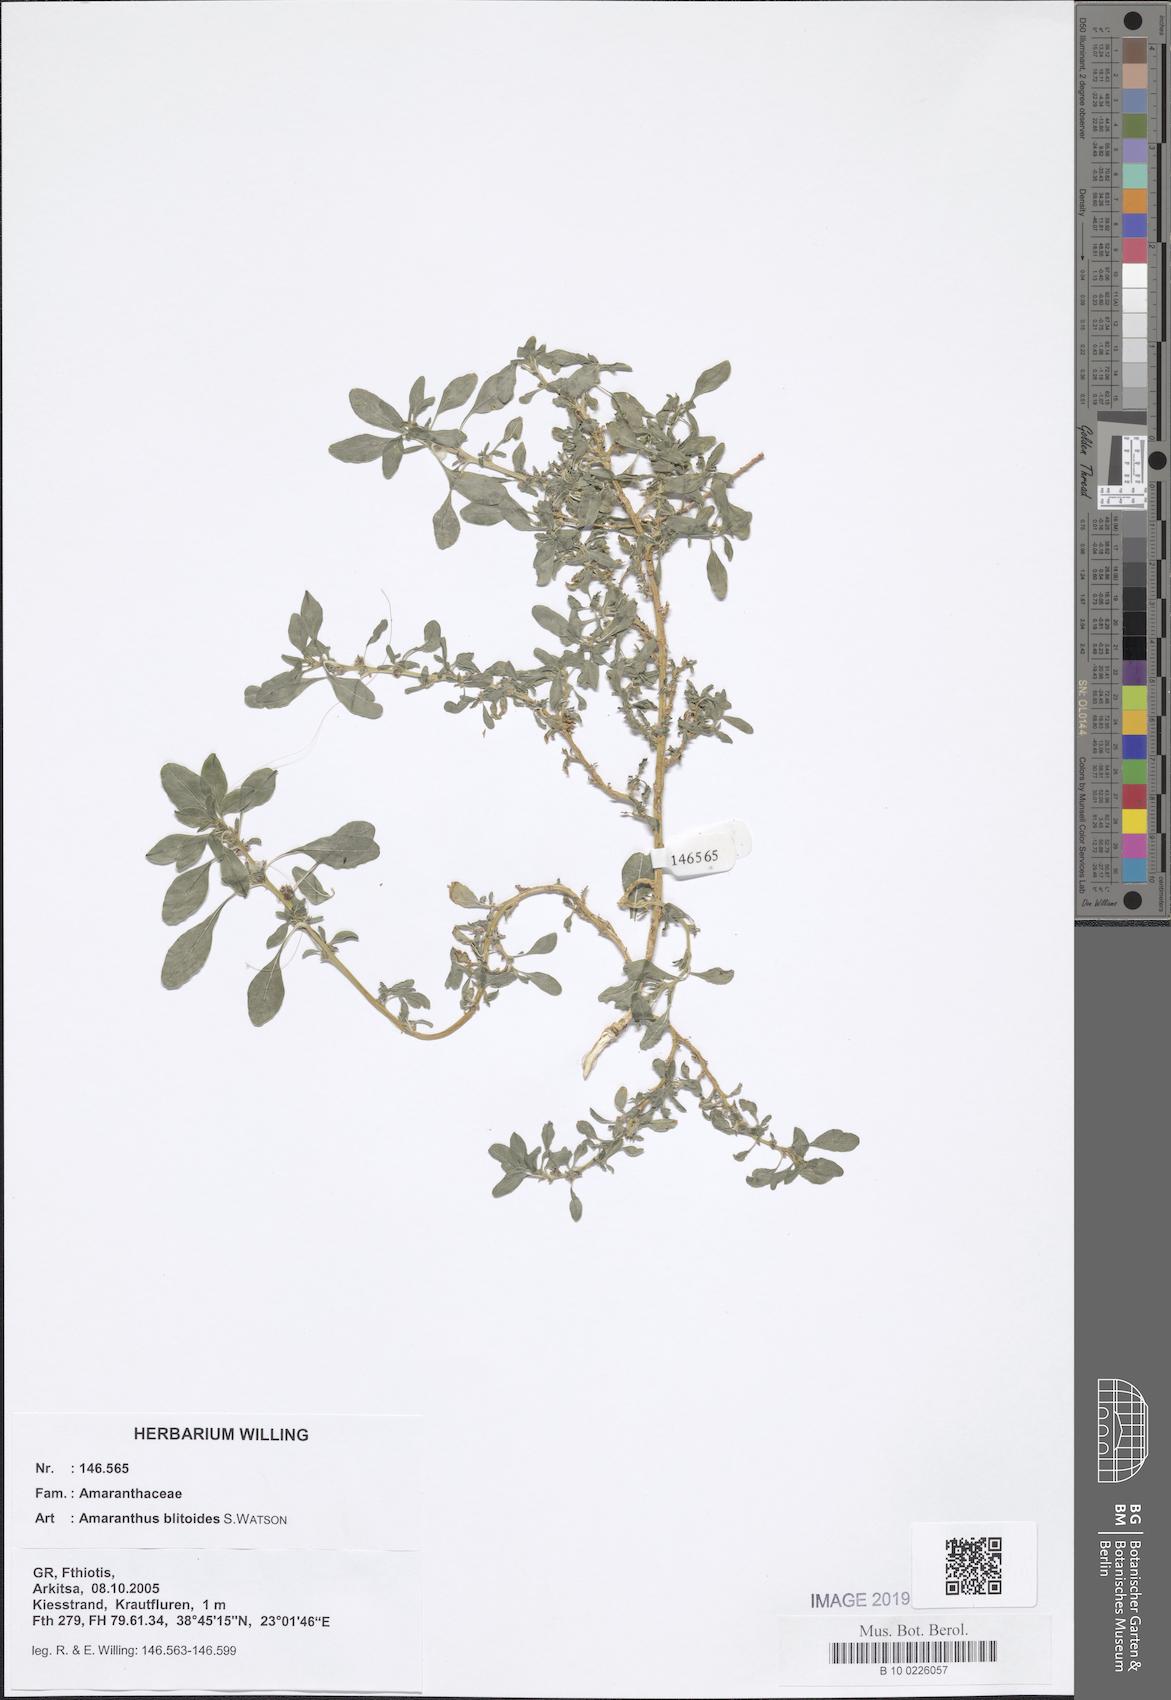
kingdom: Plantae
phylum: Tracheophyta
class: Magnoliopsida
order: Caryophyllales
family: Amaranthaceae
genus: Amaranthus
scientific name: Amaranthus blitoides
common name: Prostrate pigweed
